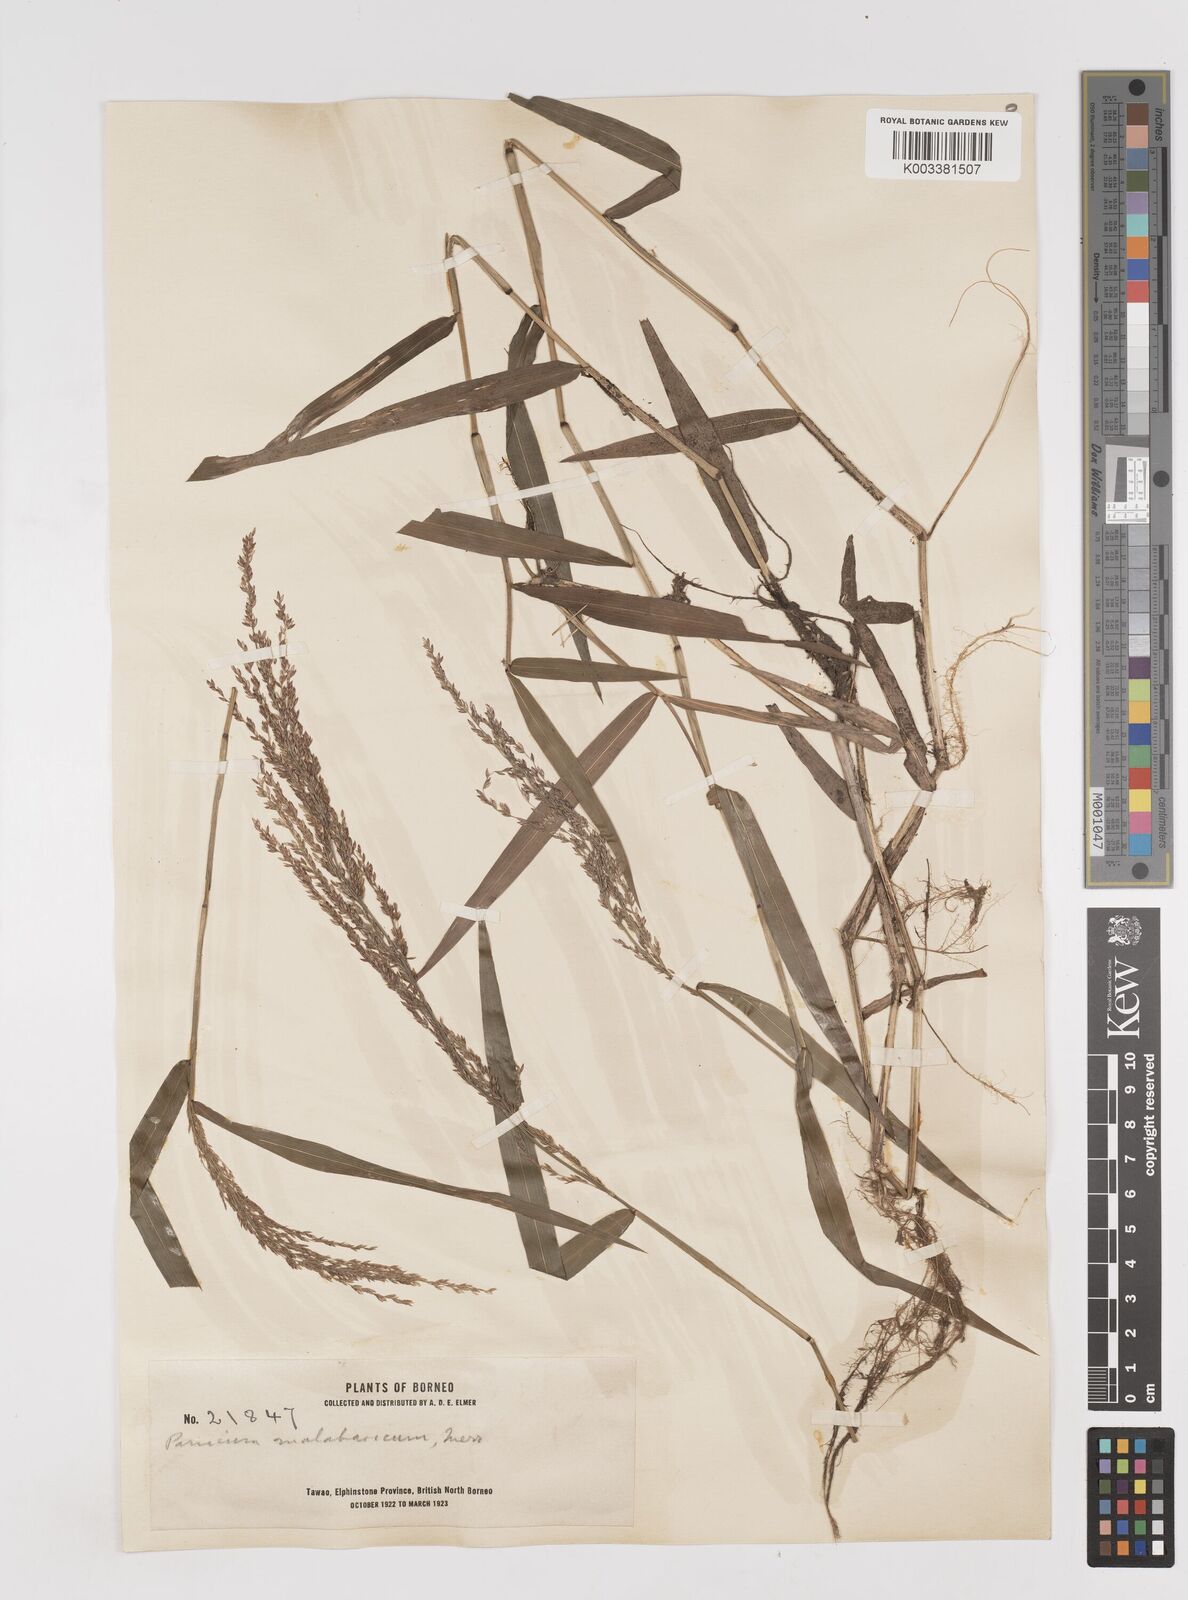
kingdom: Plantae
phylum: Tracheophyta
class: Liliopsida
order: Poales
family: Poaceae
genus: Ottochloa
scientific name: Ottochloa nodosa
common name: Slender-panic grass
